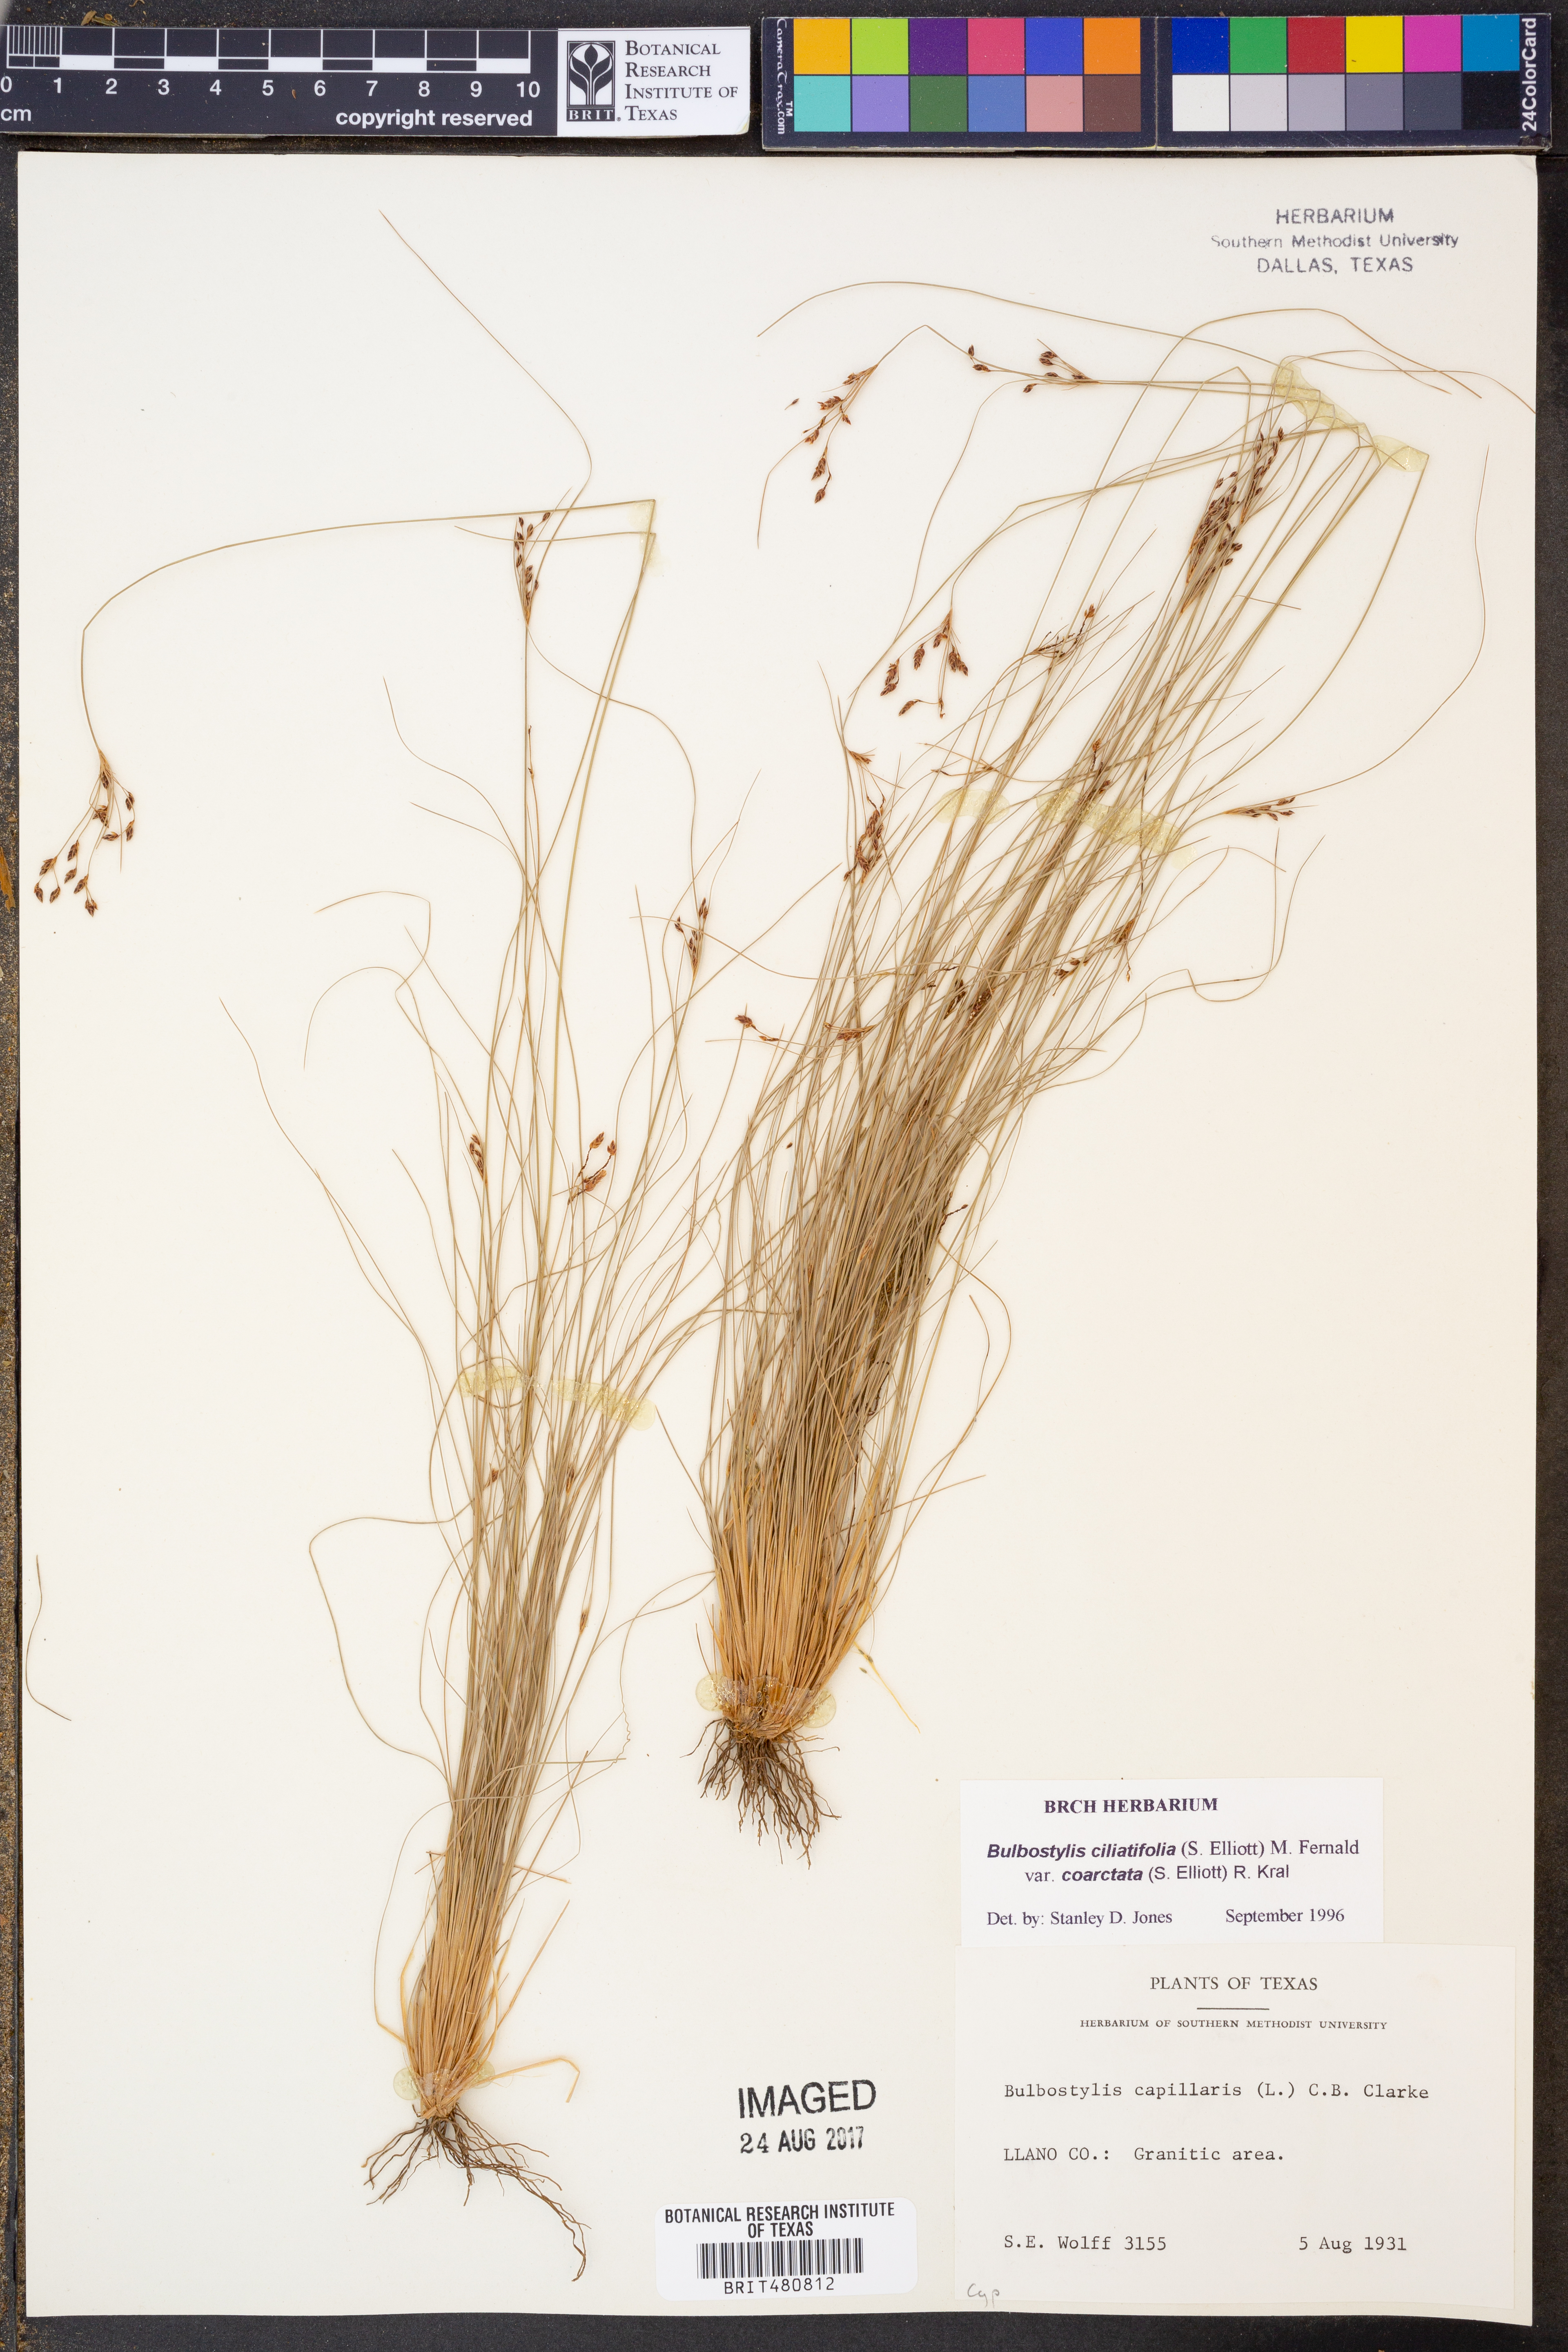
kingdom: Plantae
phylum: Tracheophyta
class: Liliopsida
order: Poales
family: Cyperaceae
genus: Bulbostylis
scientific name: Bulbostylis ciliatifolia
